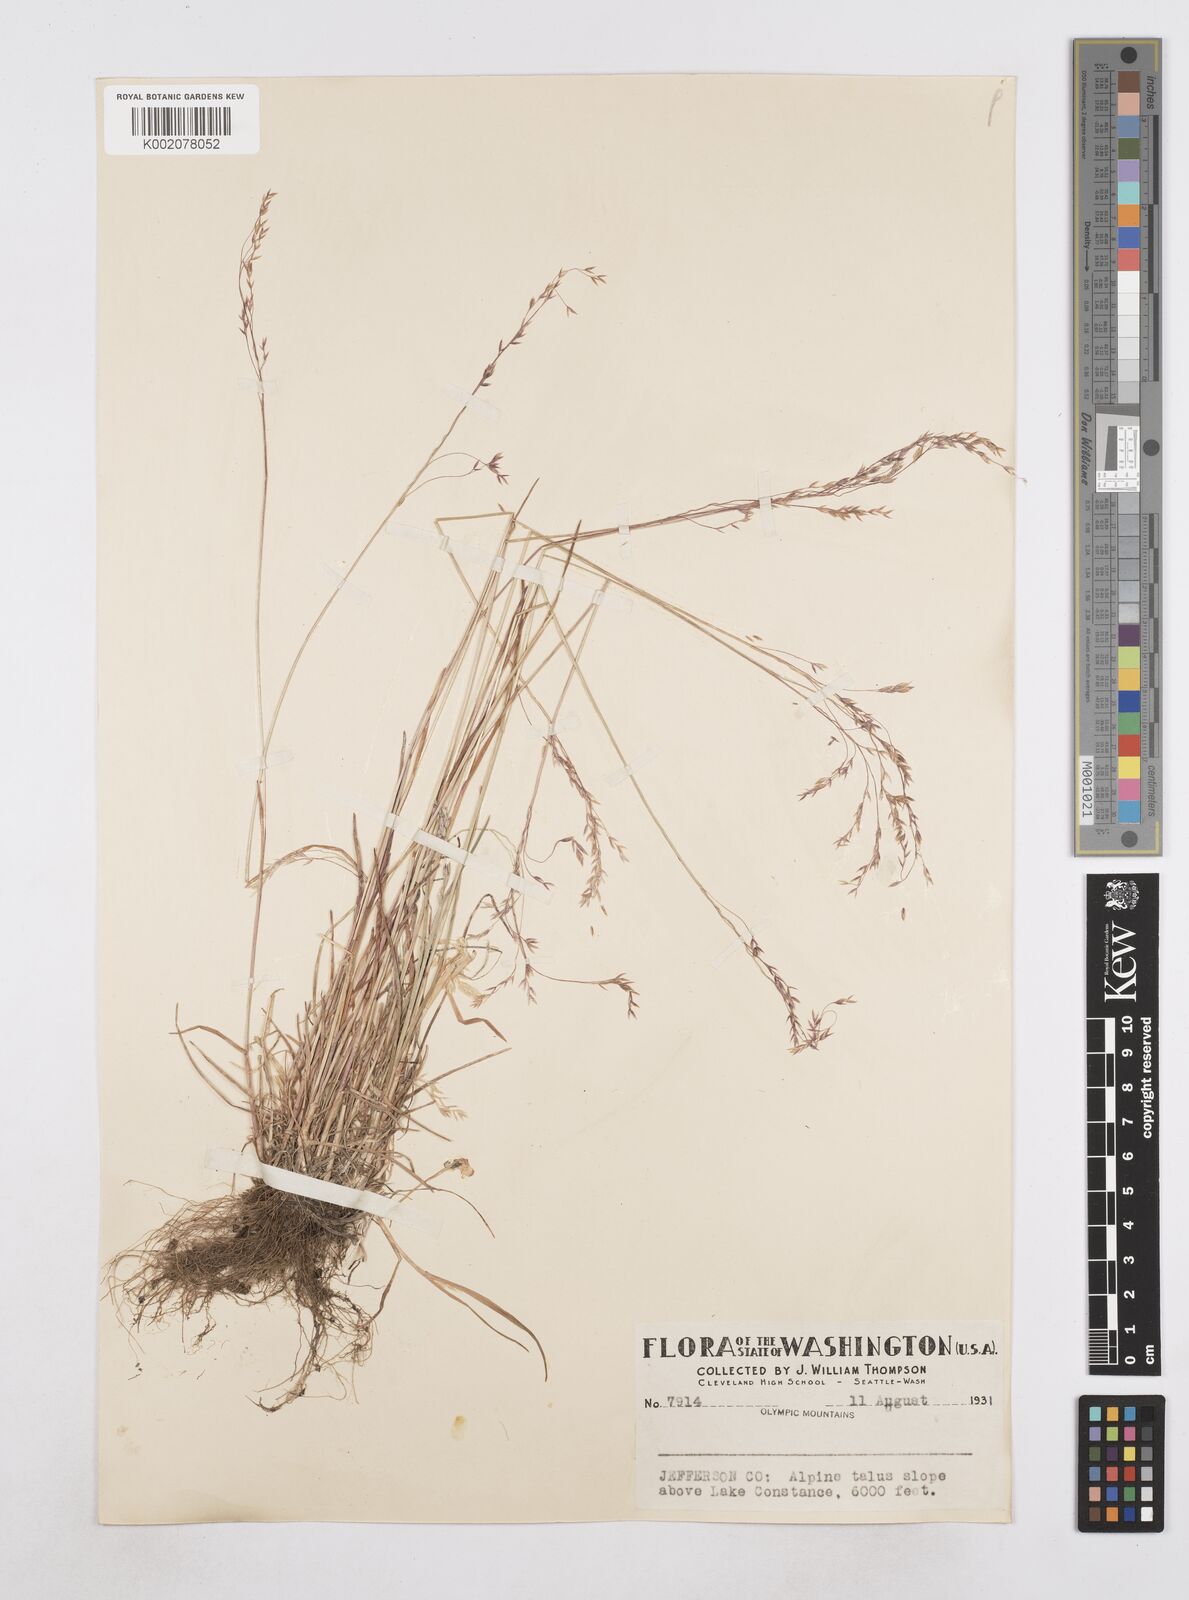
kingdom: Plantae
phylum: Tracheophyta
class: Liliopsida
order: Poales
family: Poaceae
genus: Poa
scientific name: Poa
